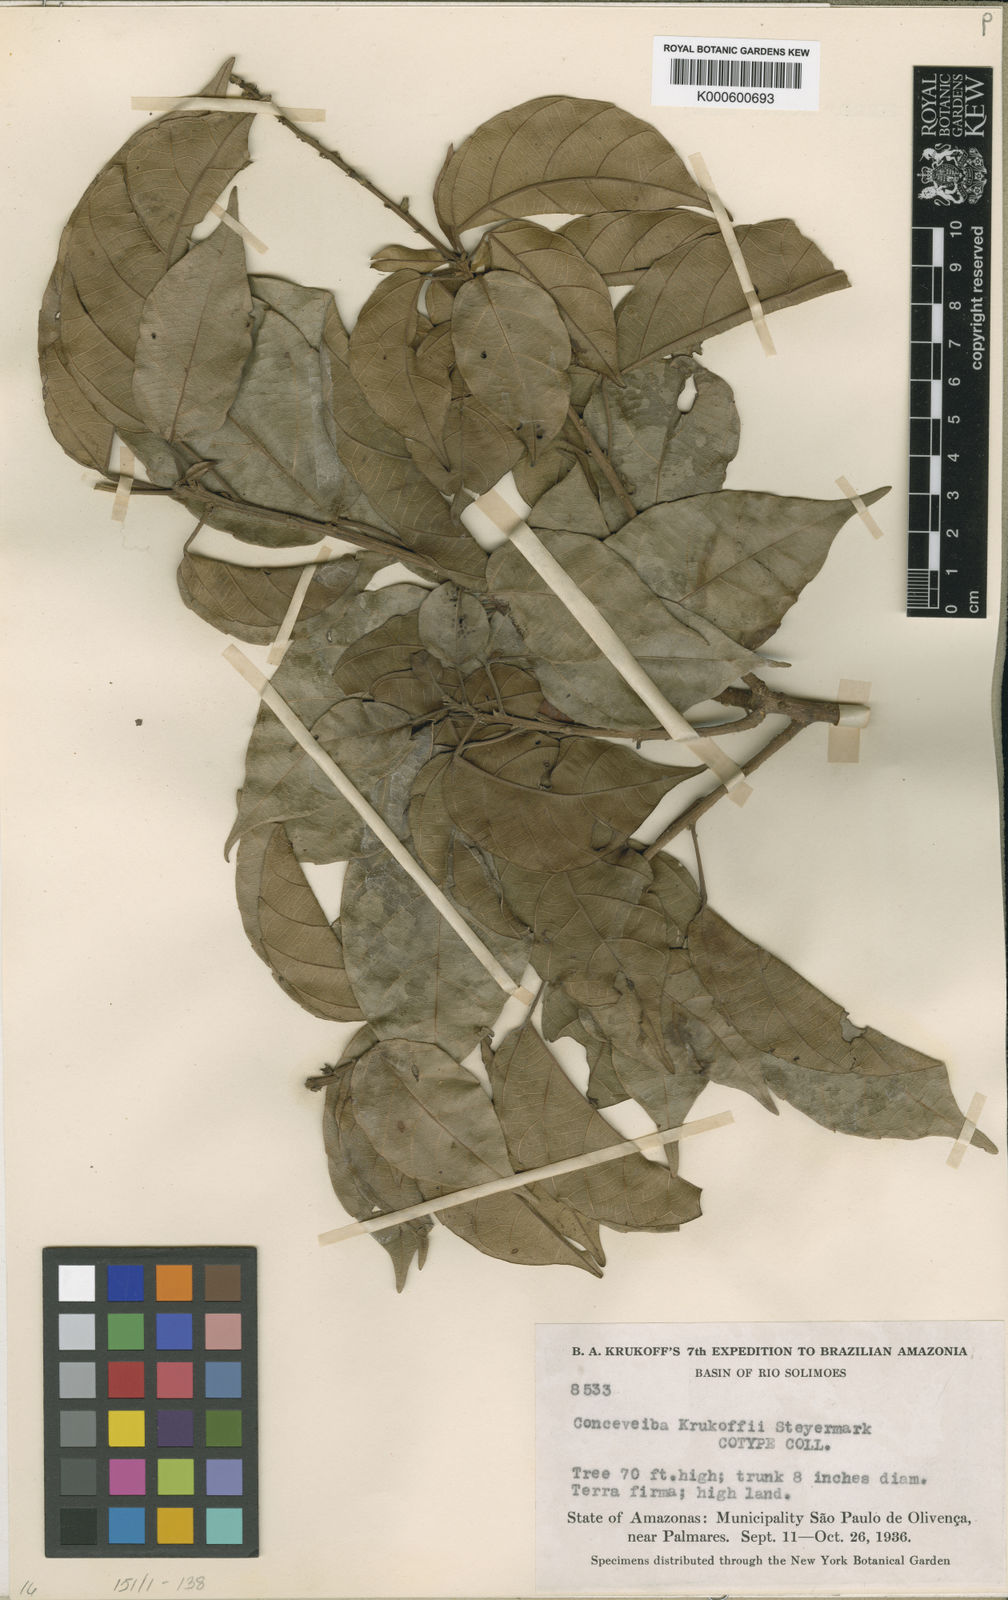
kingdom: Plantae
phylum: Tracheophyta
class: Magnoliopsida
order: Malpighiales
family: Euphorbiaceae
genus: Conceveiba
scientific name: Conceveiba krukoffii
